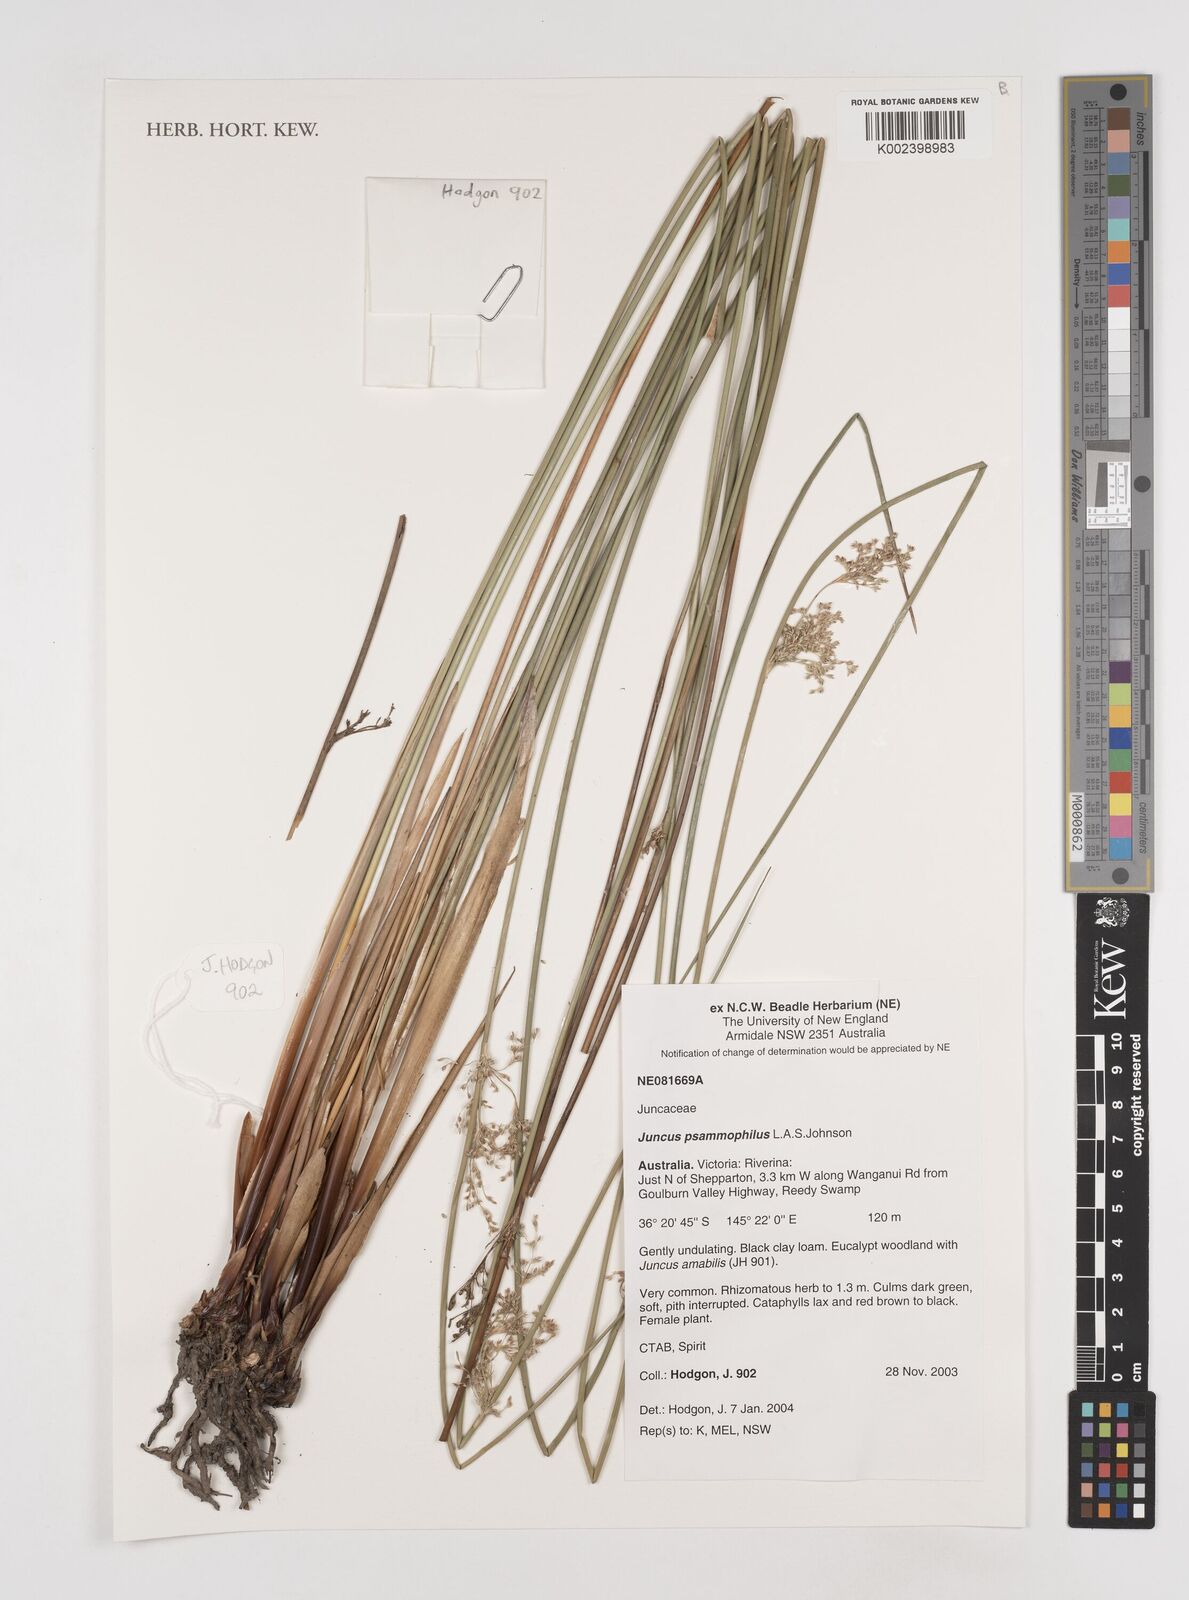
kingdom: Plantae
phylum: Tracheophyta
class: Liliopsida
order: Poales
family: Juncaceae
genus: Juncus
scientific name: Juncus psammophilus
